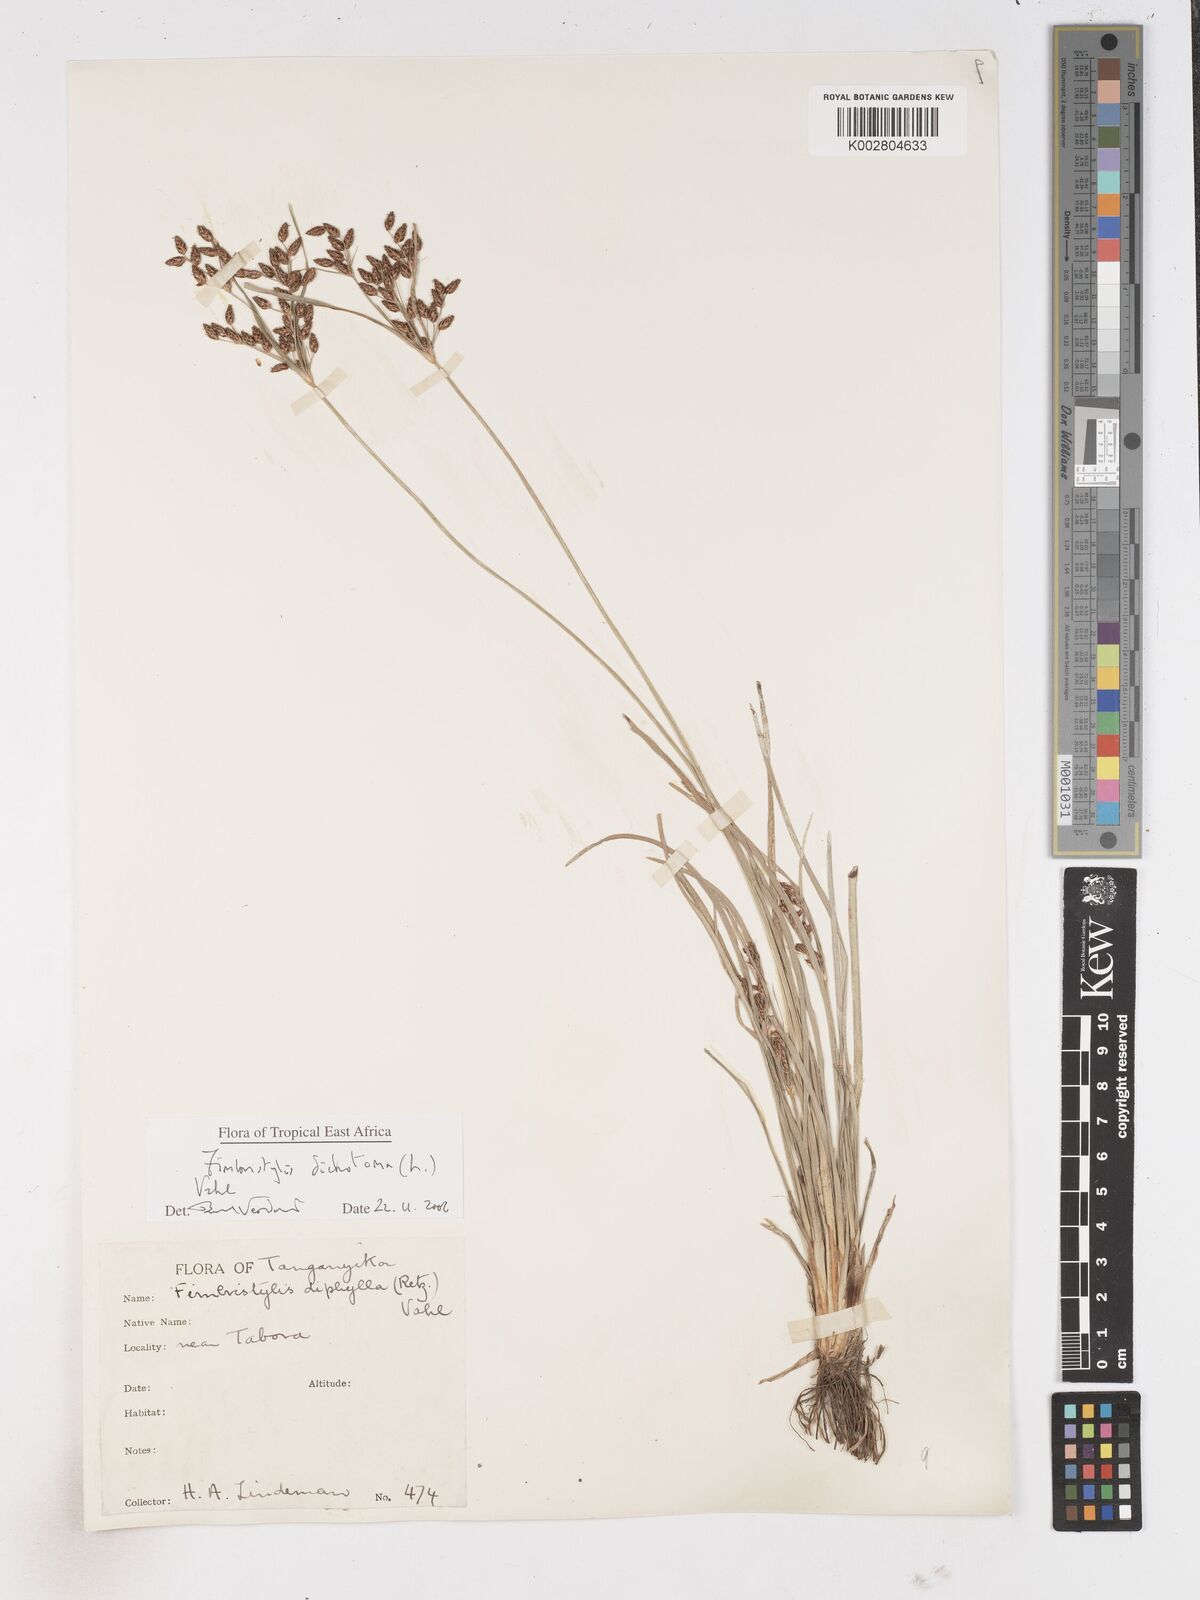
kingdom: Plantae
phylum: Tracheophyta
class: Liliopsida
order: Poales
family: Cyperaceae
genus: Fimbristylis
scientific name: Fimbristylis dichotoma
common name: Forked fimbry
